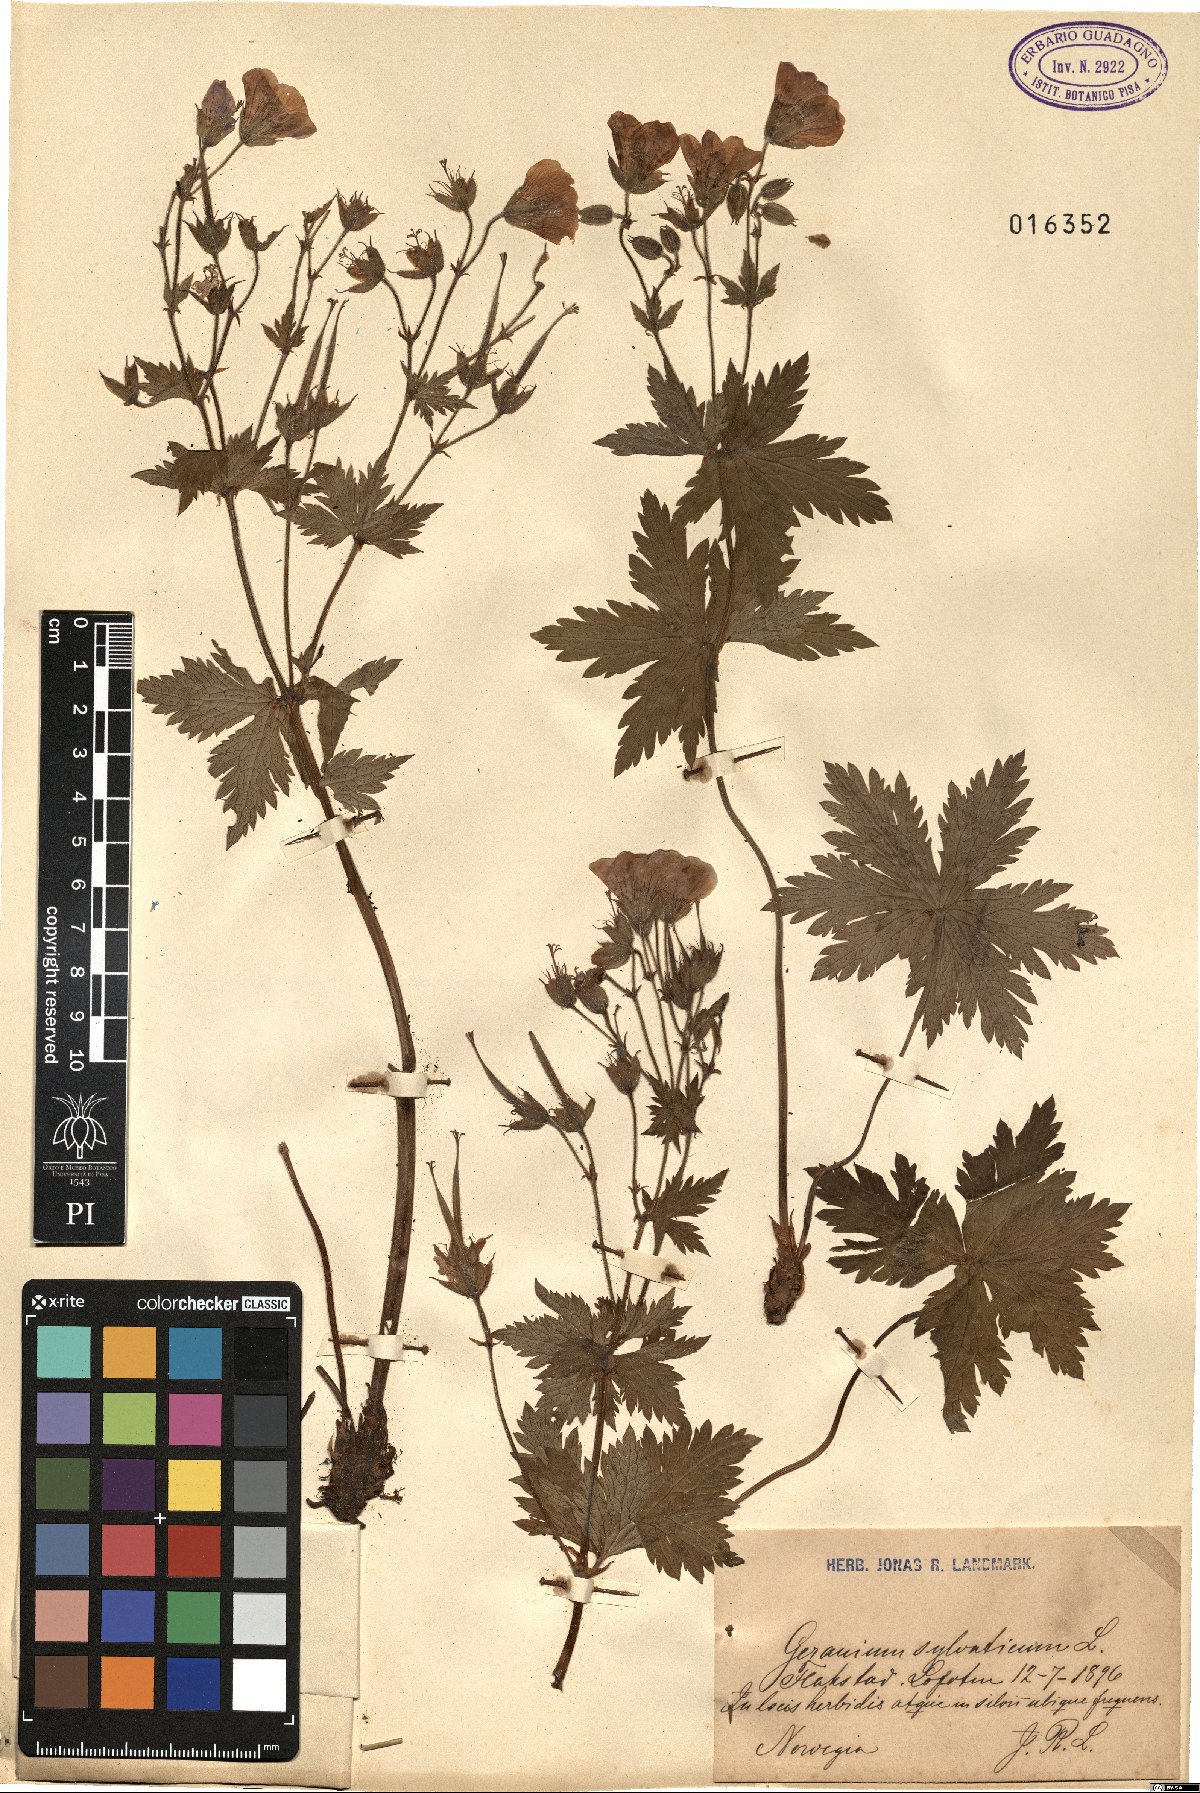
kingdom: Plantae
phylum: Tracheophyta
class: Magnoliopsida
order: Geraniales
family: Geraniaceae
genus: Geranium
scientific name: Geranium sylvaticum
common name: Wood crane's-bill
